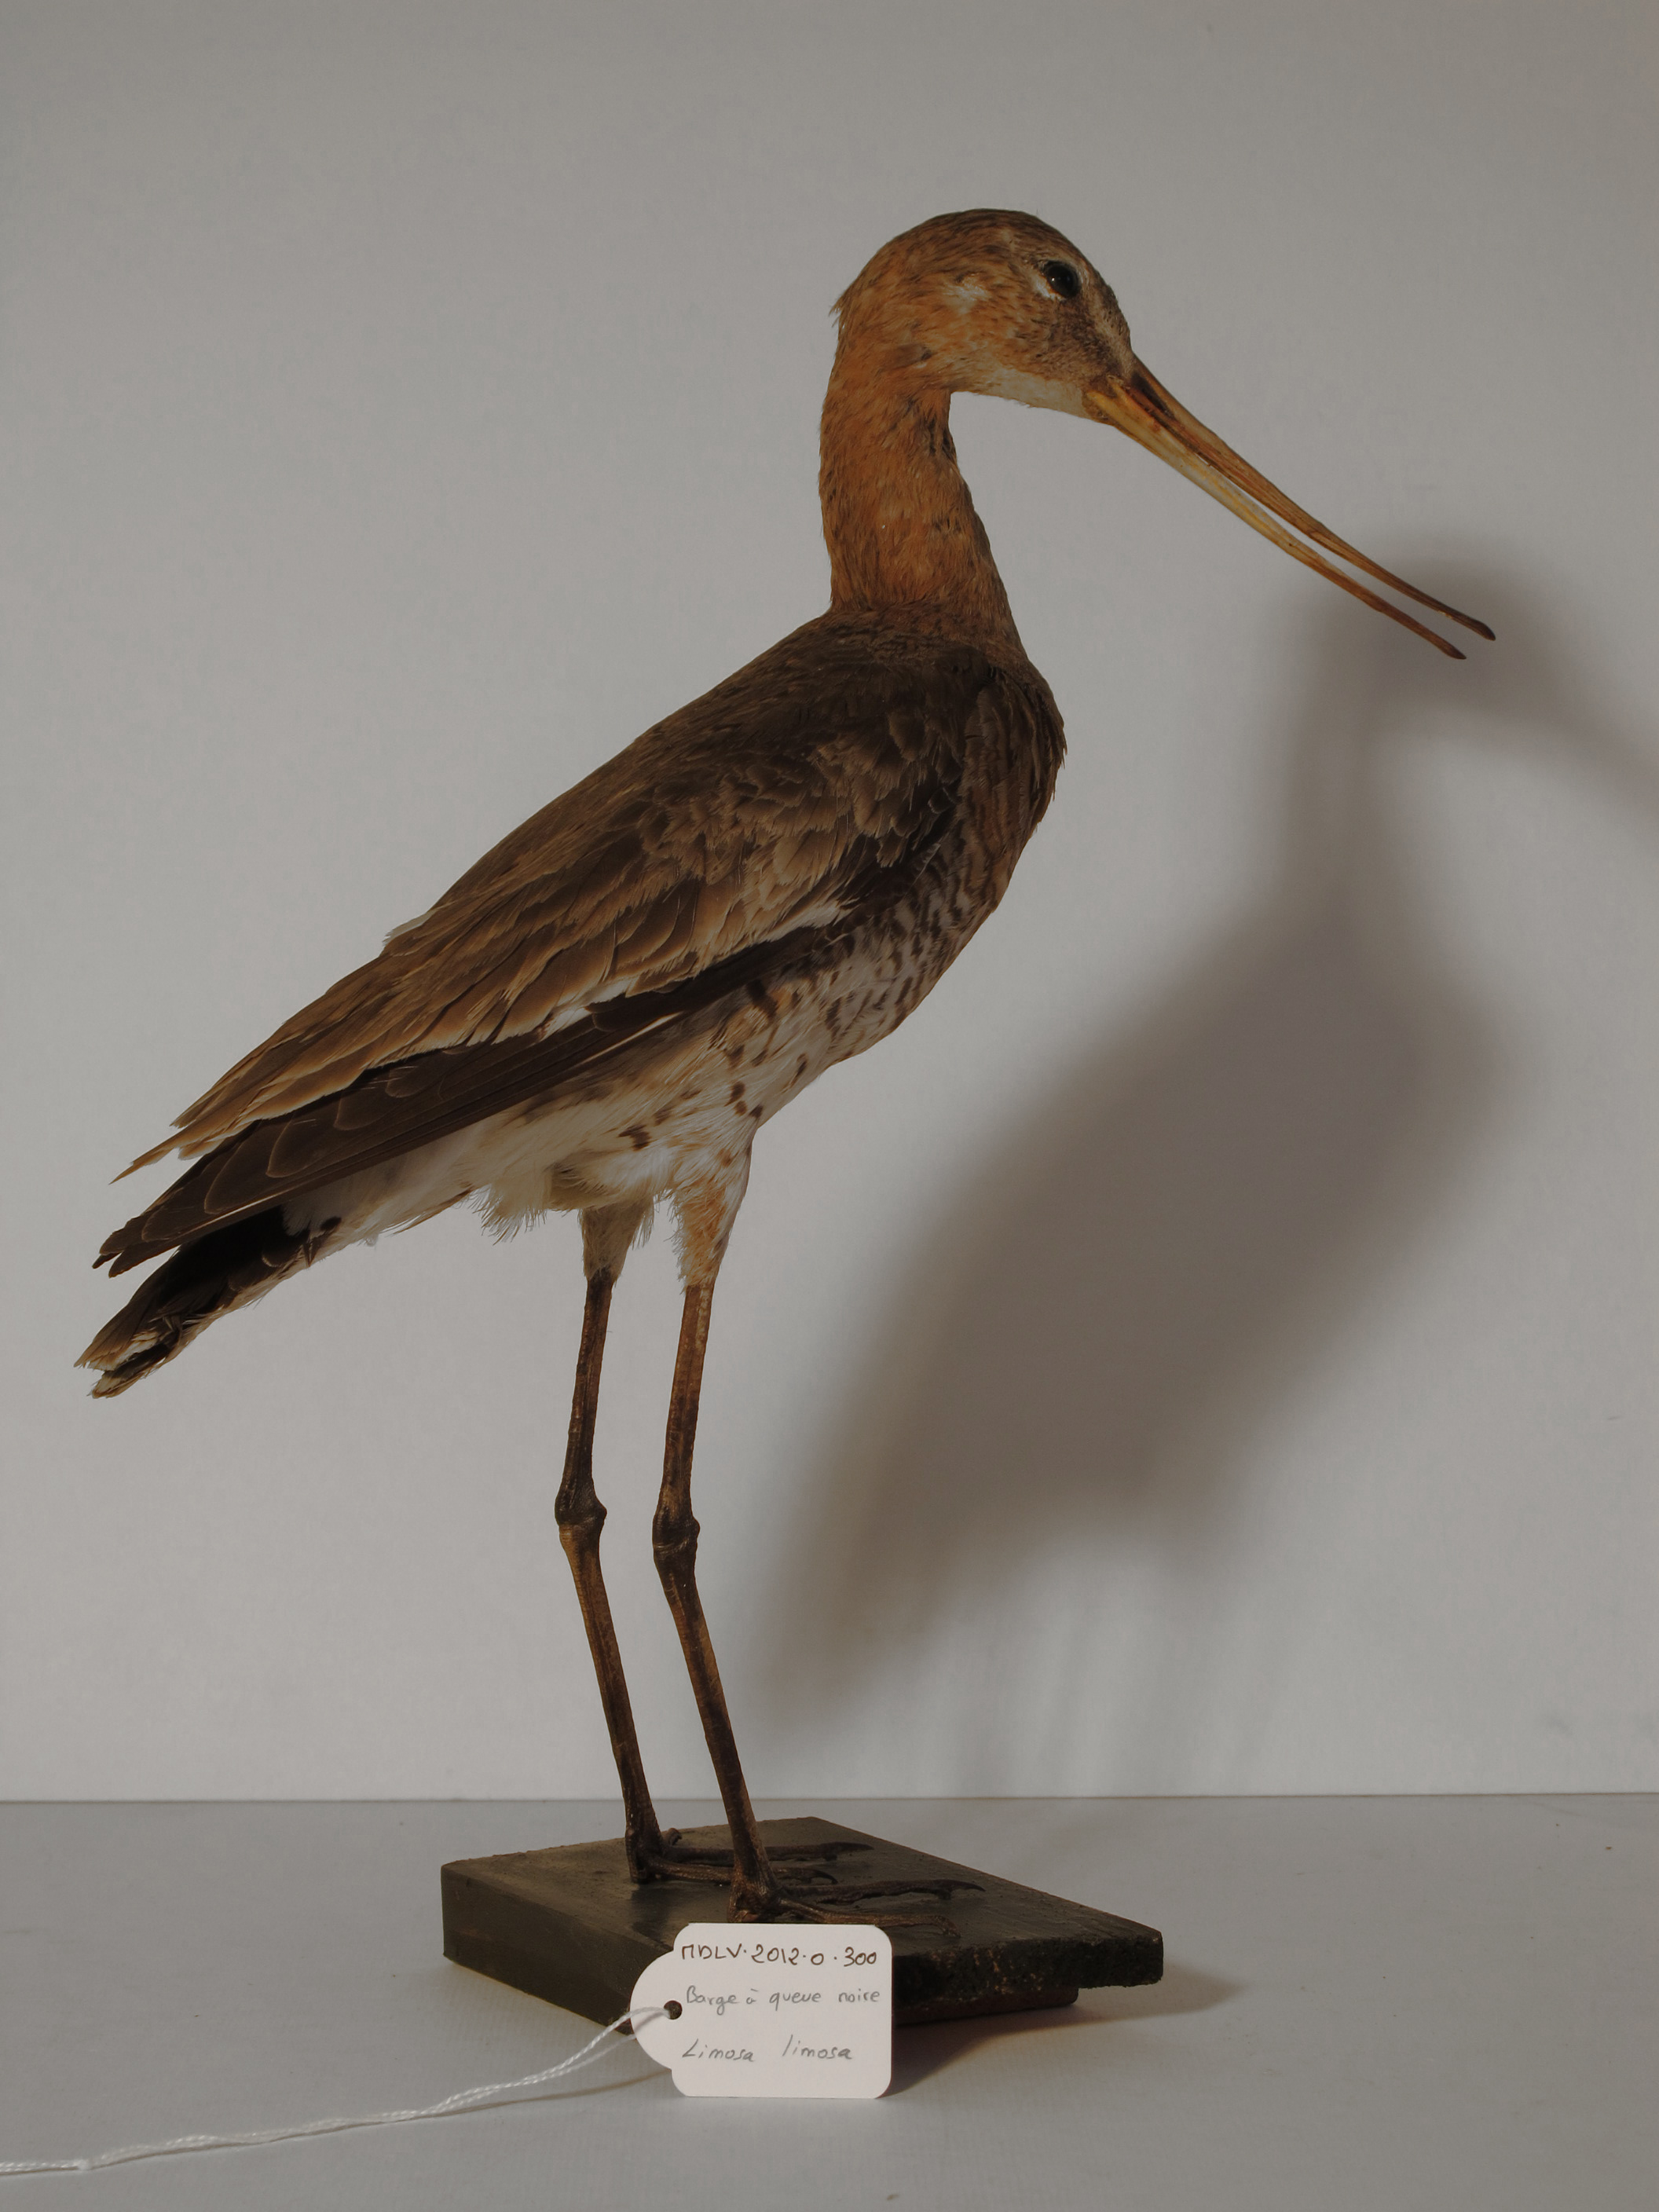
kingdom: Animalia
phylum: Chordata
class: Aves
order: Charadriiformes
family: Scolopacidae
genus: Limosa
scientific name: Limosa limosa
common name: Black-tailed Godwit
